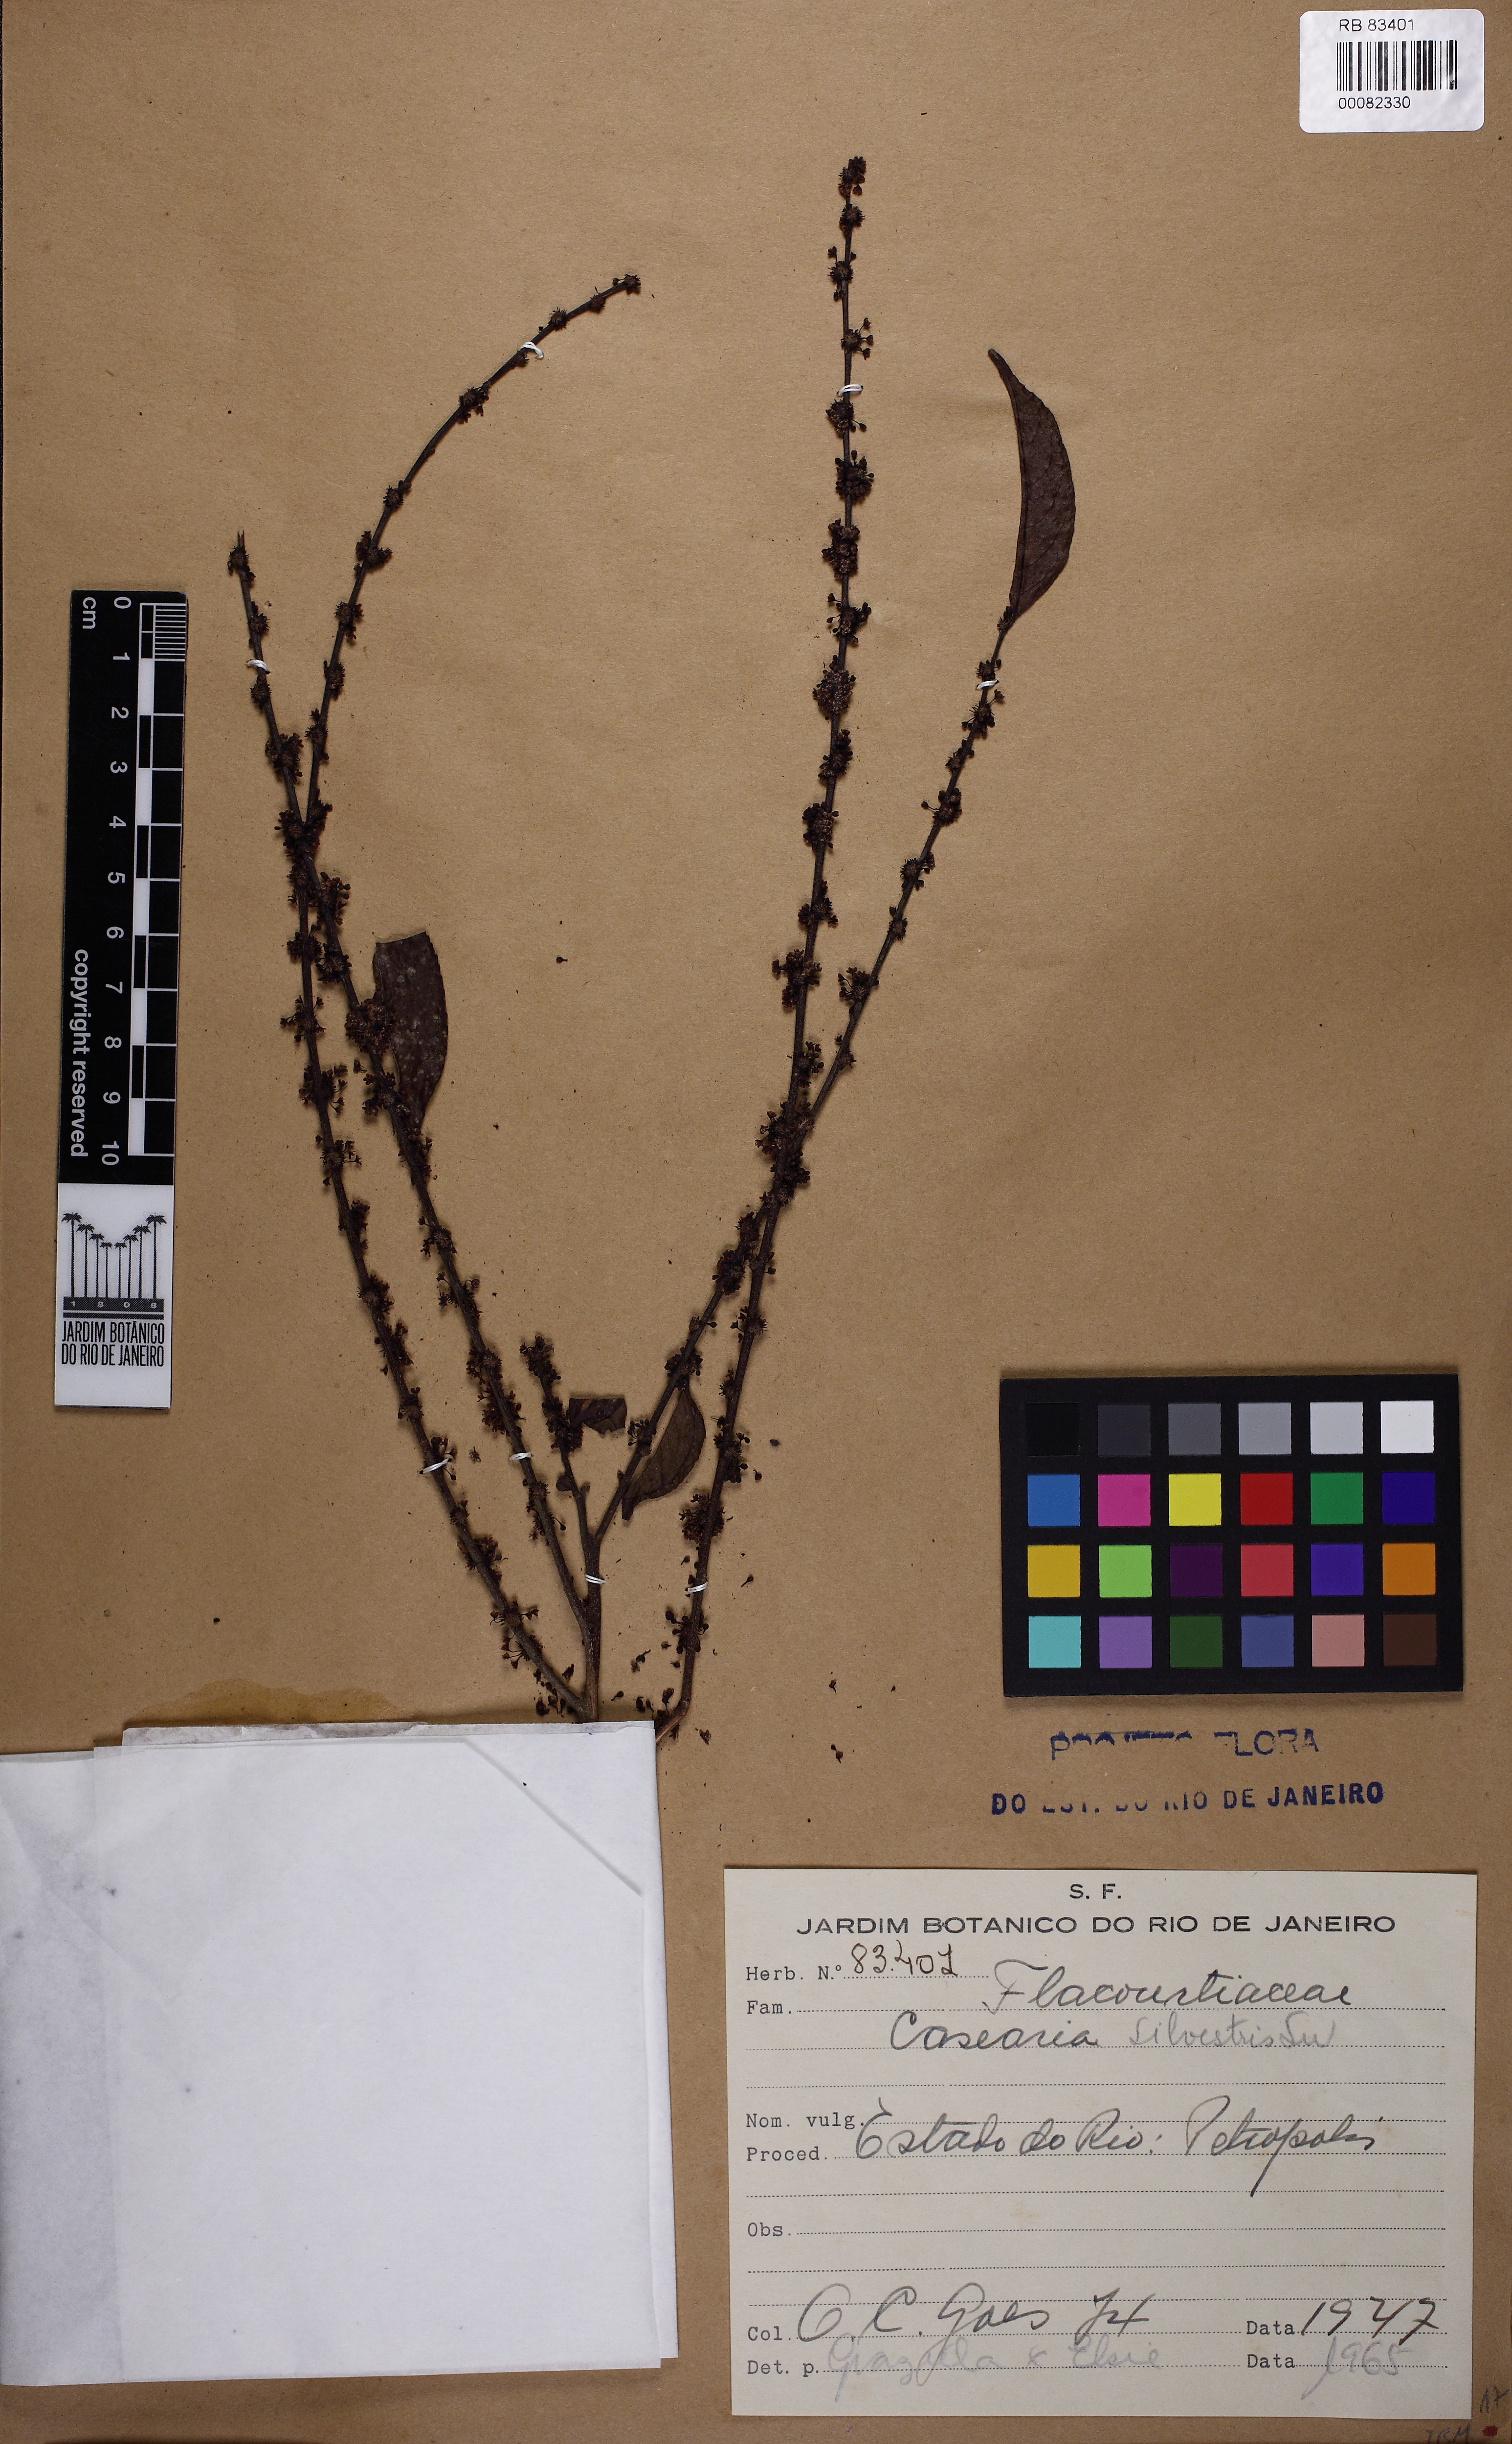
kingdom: Plantae
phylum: Tracheophyta
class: Magnoliopsida
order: Malpighiales
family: Salicaceae
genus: Casearia
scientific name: Casearia sylvestris
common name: Wild sage
